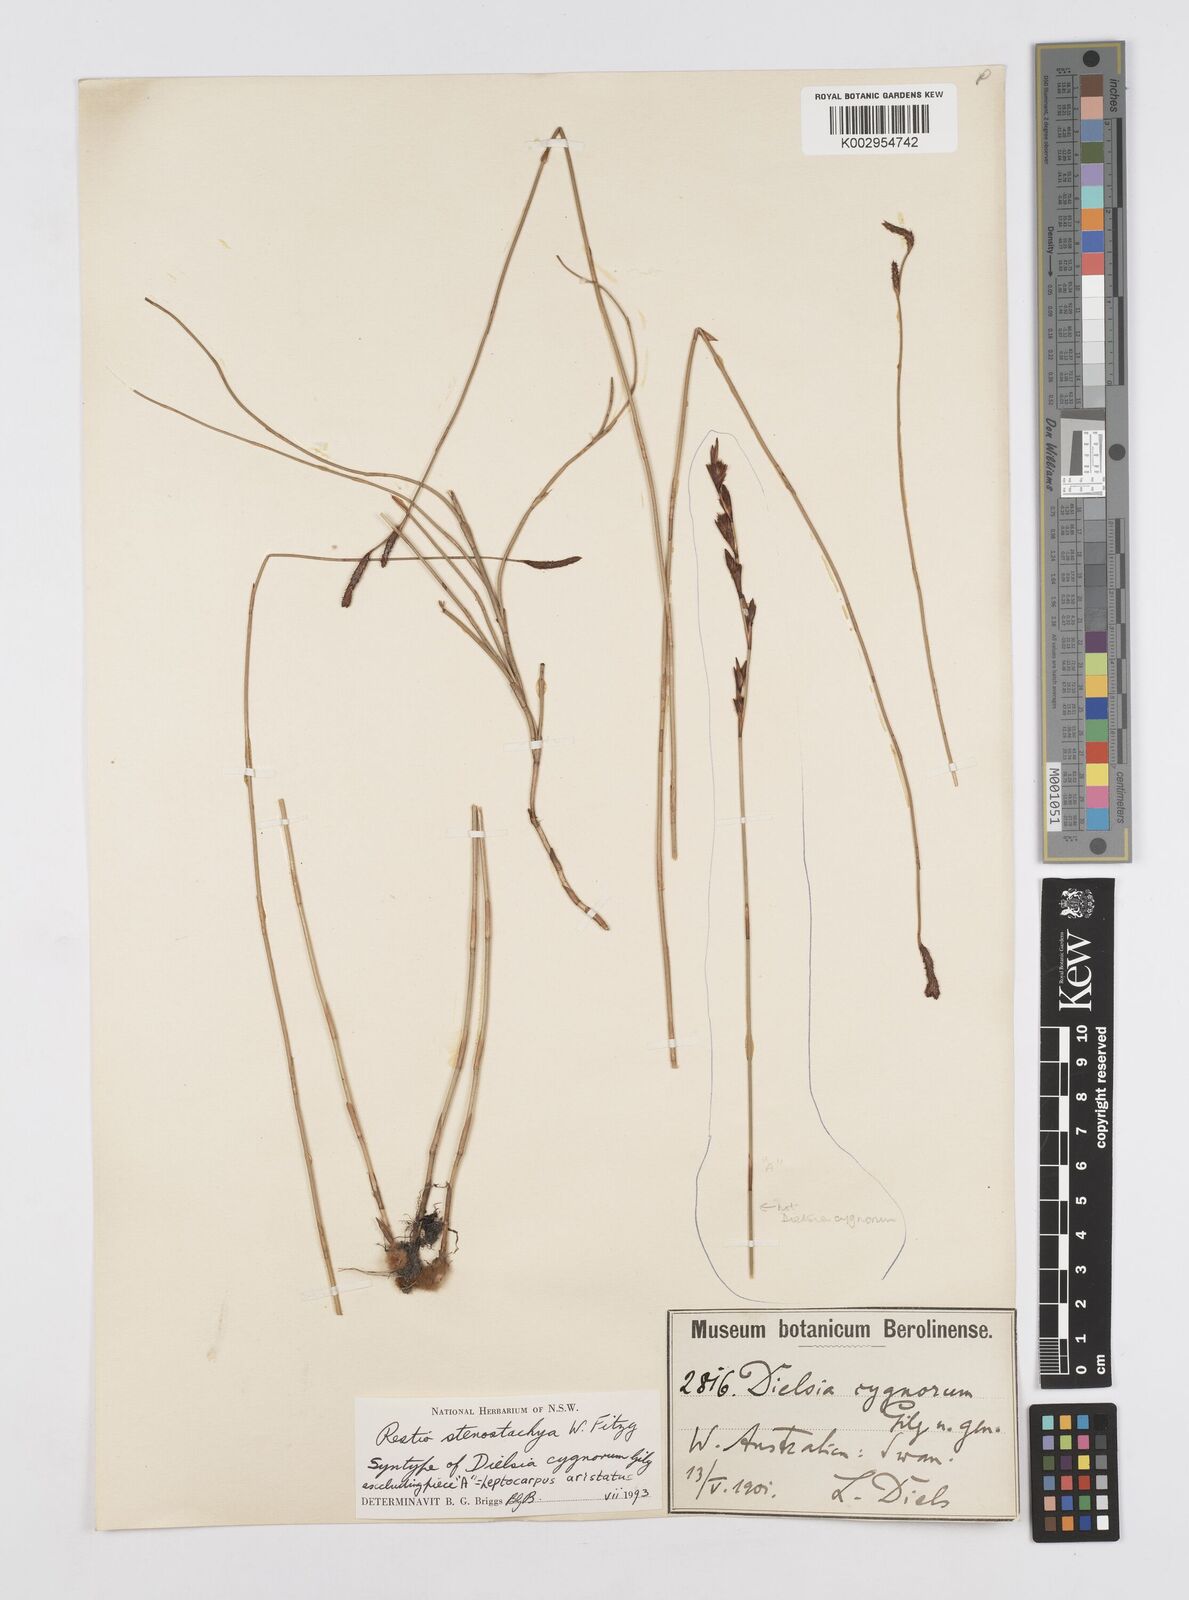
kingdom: Plantae
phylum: Tracheophyta
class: Liliopsida
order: Poales
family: Restionaceae
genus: Dielsia
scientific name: Dielsia stenostachya
